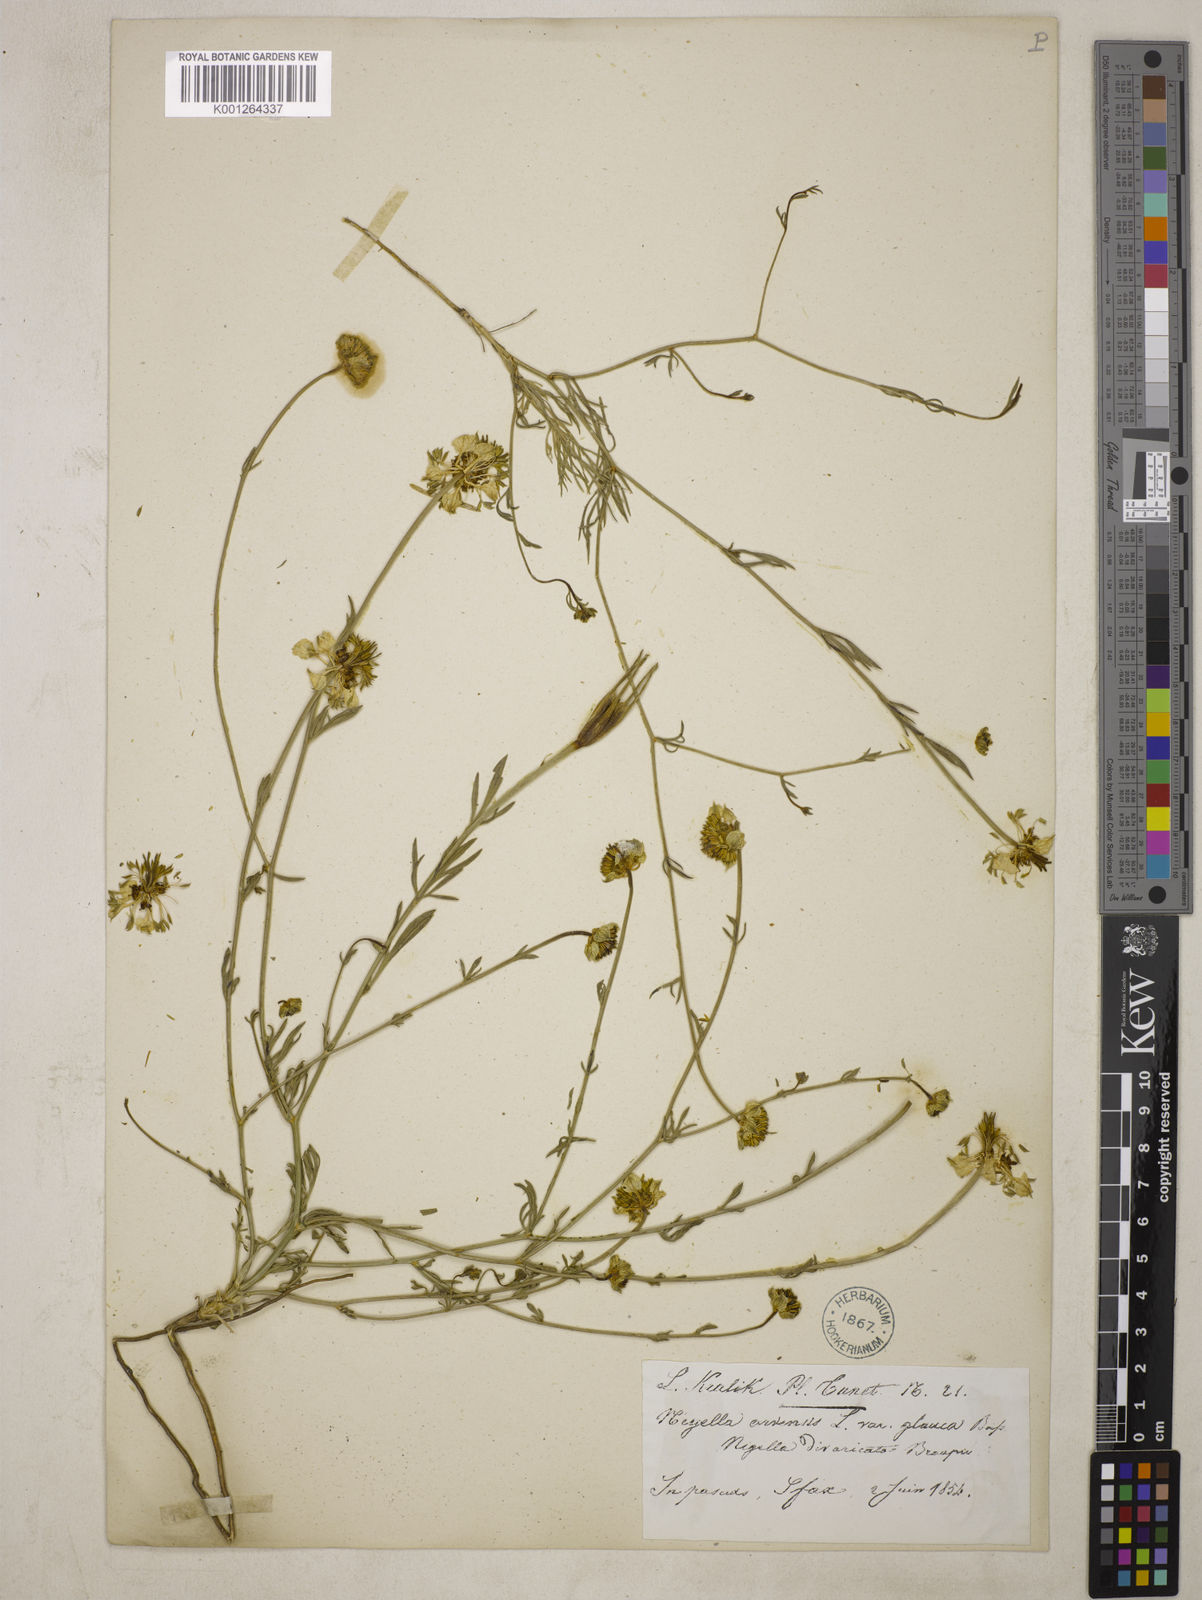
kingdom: Plantae
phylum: Tracheophyta
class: Magnoliopsida
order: Ranunculales
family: Ranunculaceae
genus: Nigella
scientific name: Nigella arvensis
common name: Wild fennel-flower
